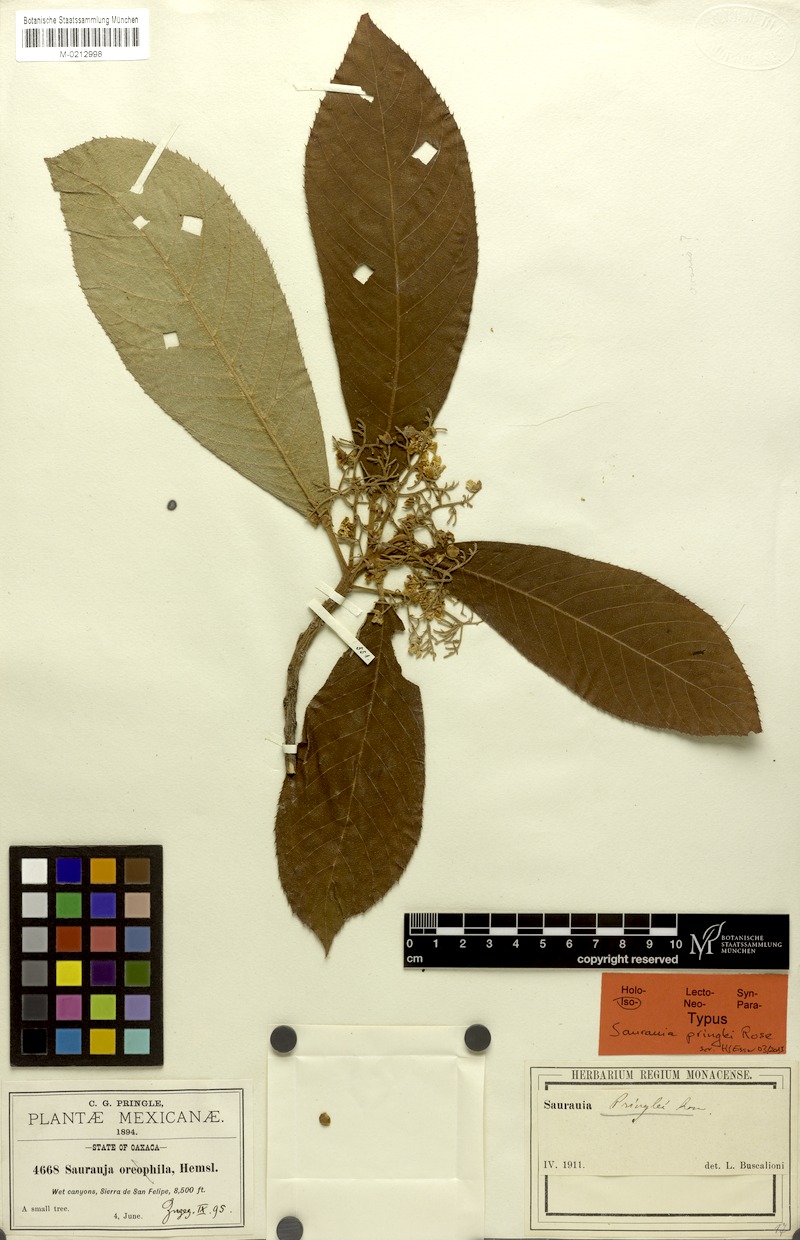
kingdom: Plantae
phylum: Tracheophyta
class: Magnoliopsida
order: Ericales
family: Actinidiaceae
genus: Saurauia
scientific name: Saurauia pringlei
